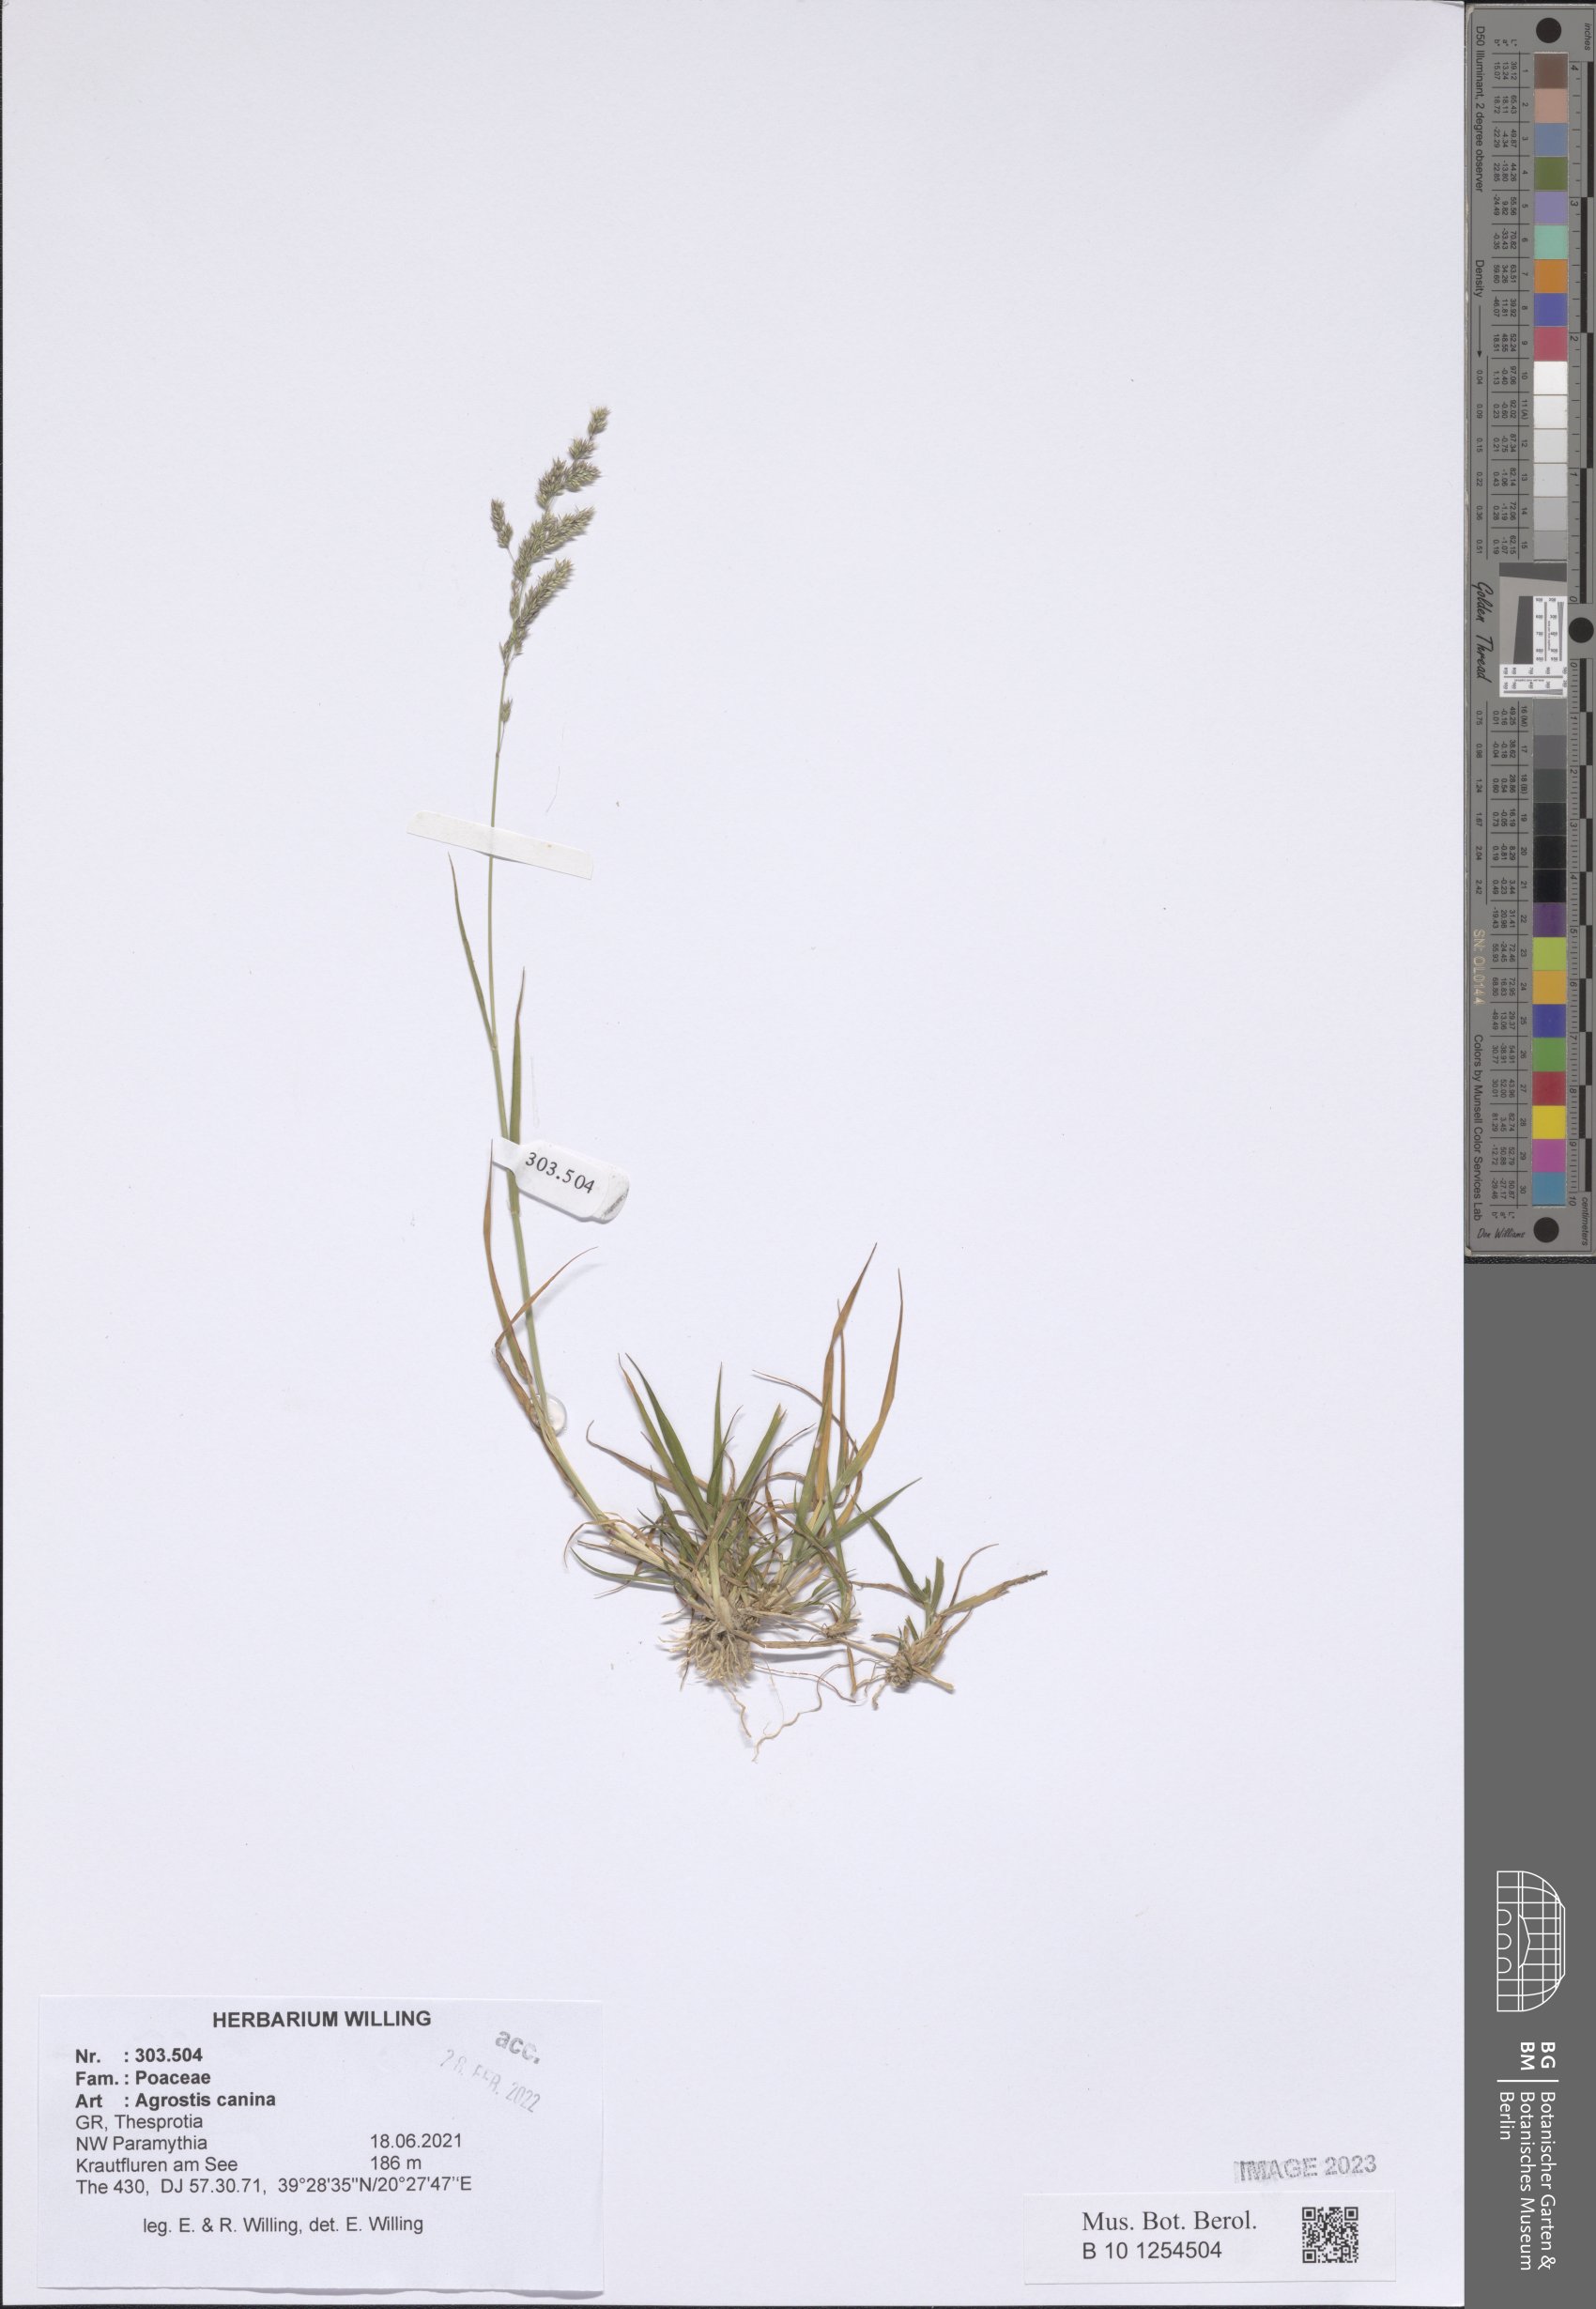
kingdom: Plantae
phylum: Tracheophyta
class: Liliopsida
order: Poales
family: Poaceae
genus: Agrostis
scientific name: Agrostis canina
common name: Velvet bent
